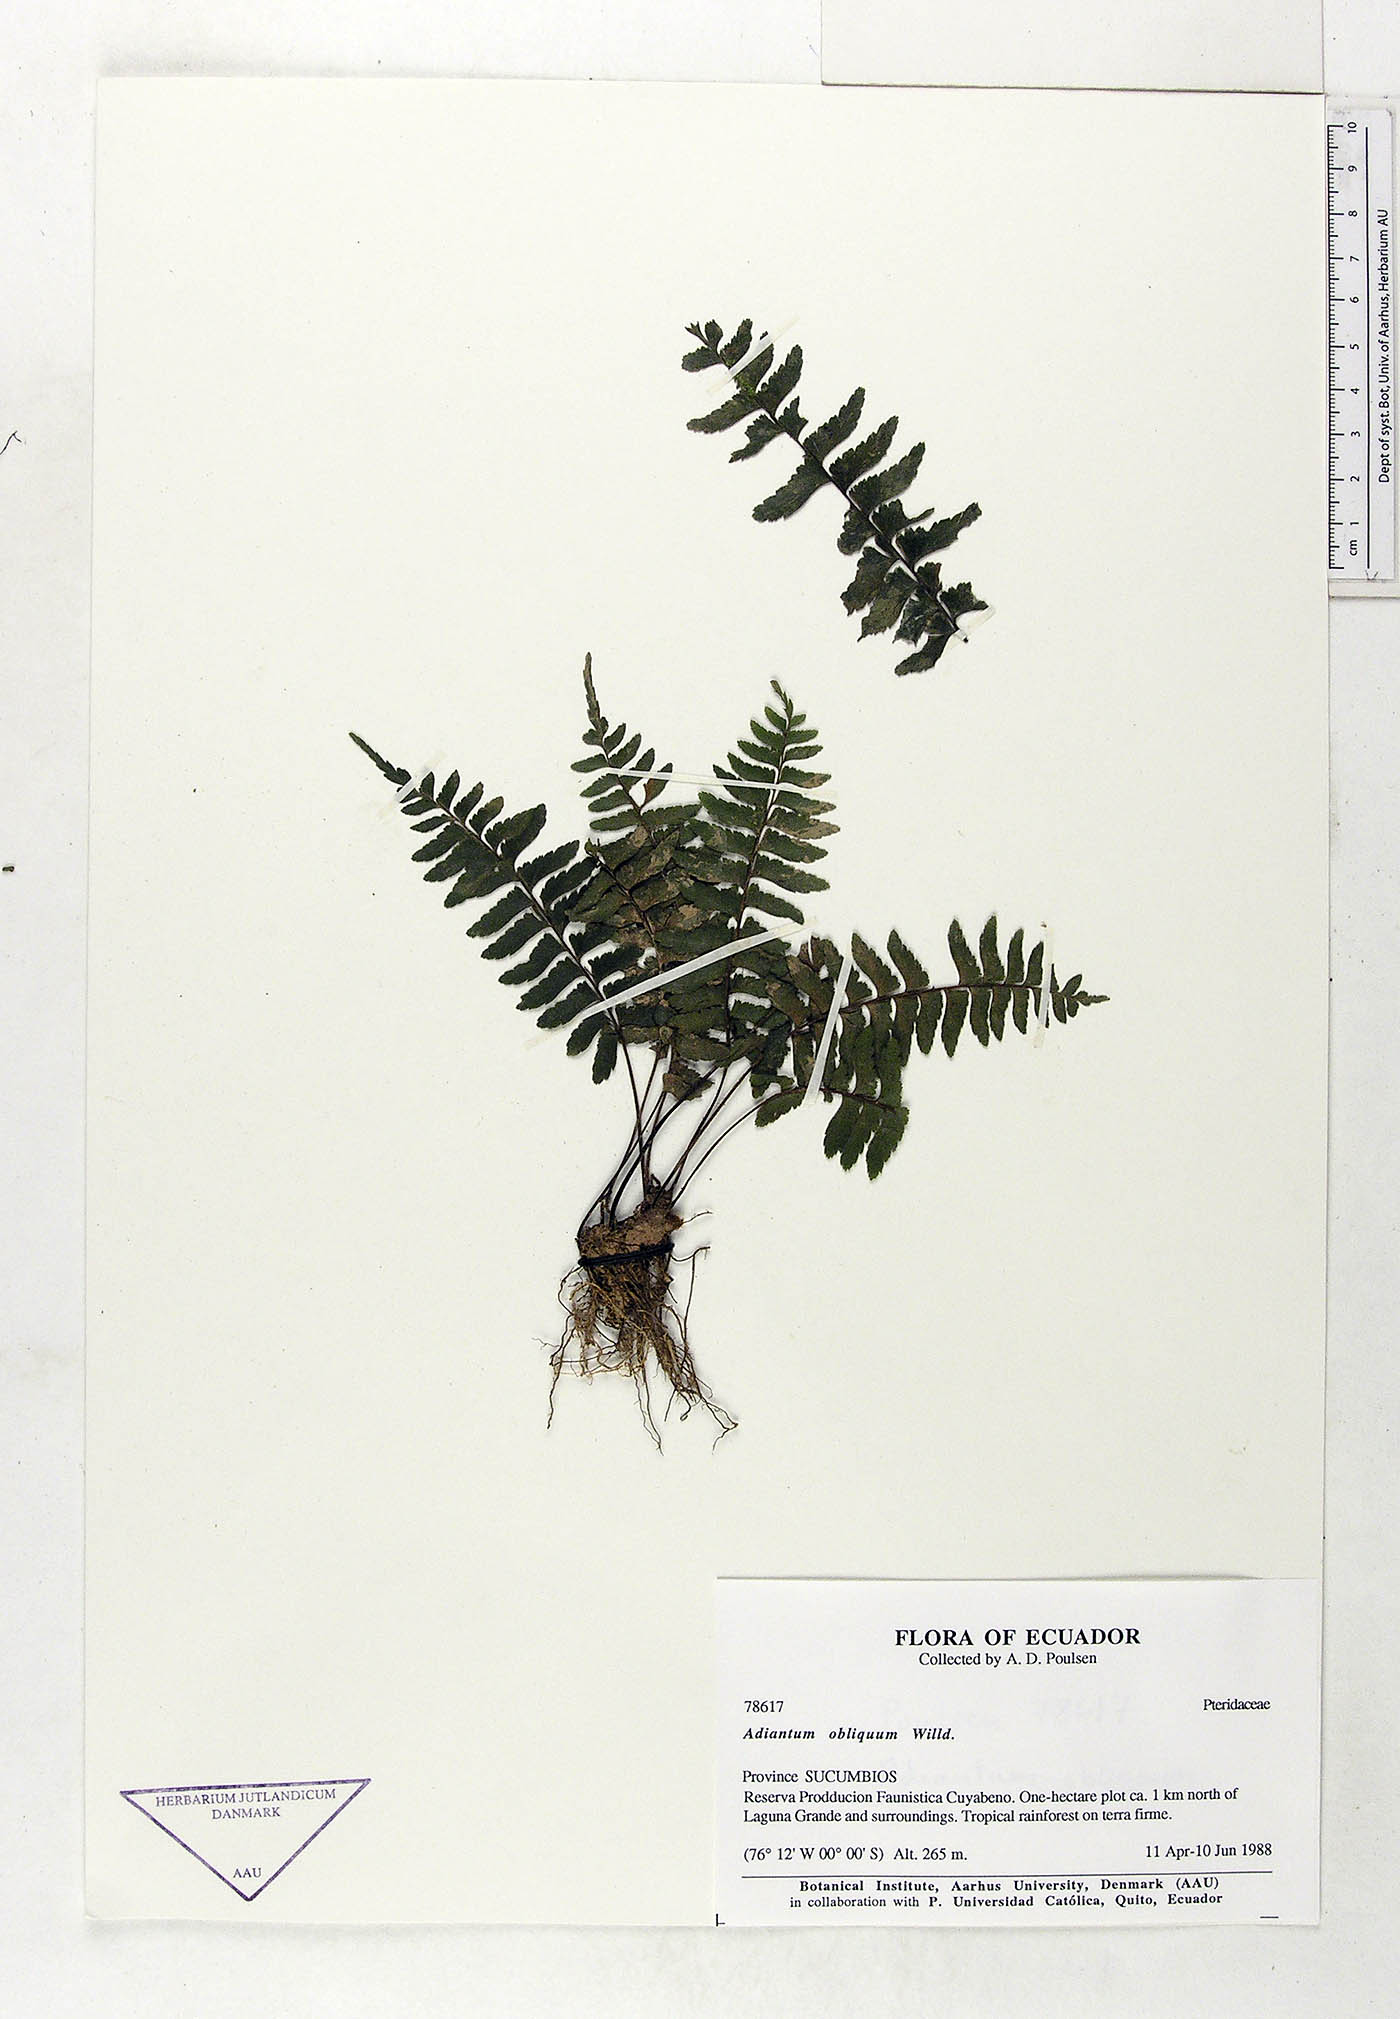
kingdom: Plantae
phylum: Tracheophyta
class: Polypodiopsida
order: Polypodiales
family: Pteridaceae
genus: Adiantum
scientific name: Adiantum obliquum
